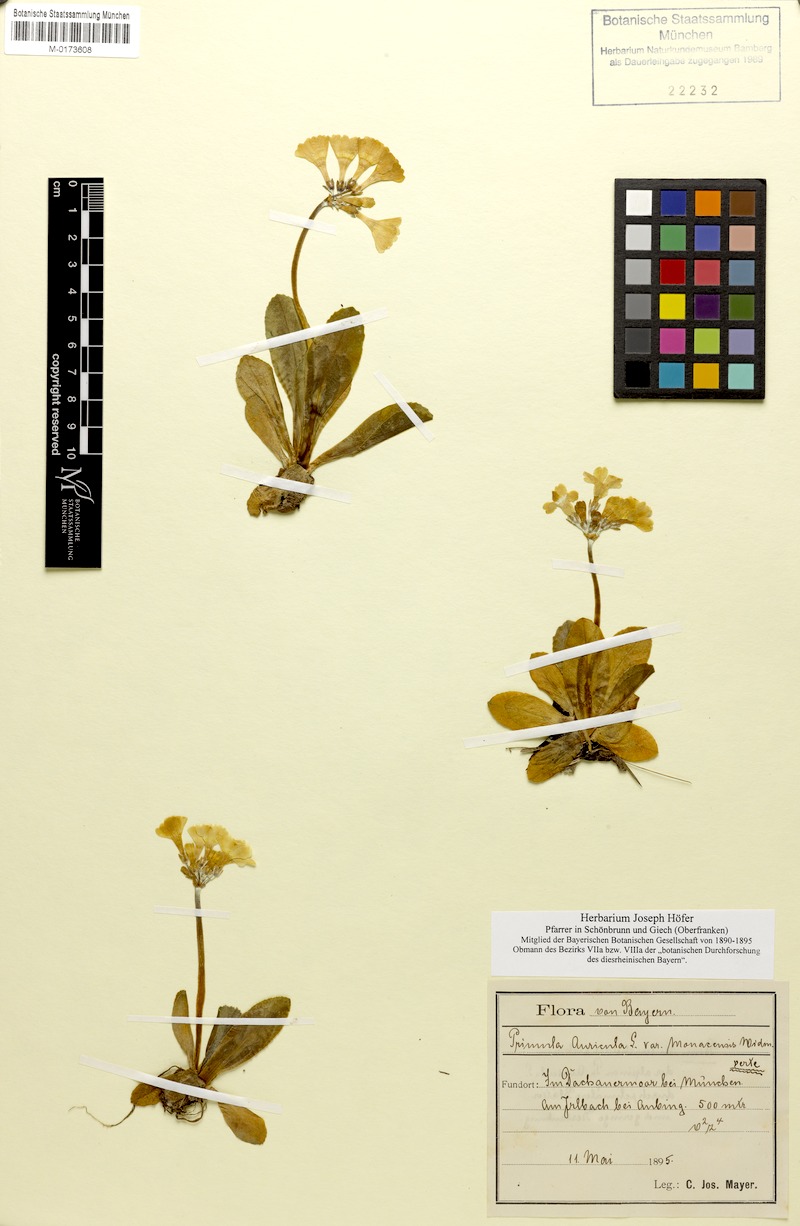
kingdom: Plantae
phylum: Tracheophyta
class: Magnoliopsida
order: Ericales
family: Primulaceae
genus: Primula
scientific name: Primula auricula
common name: Auricula
